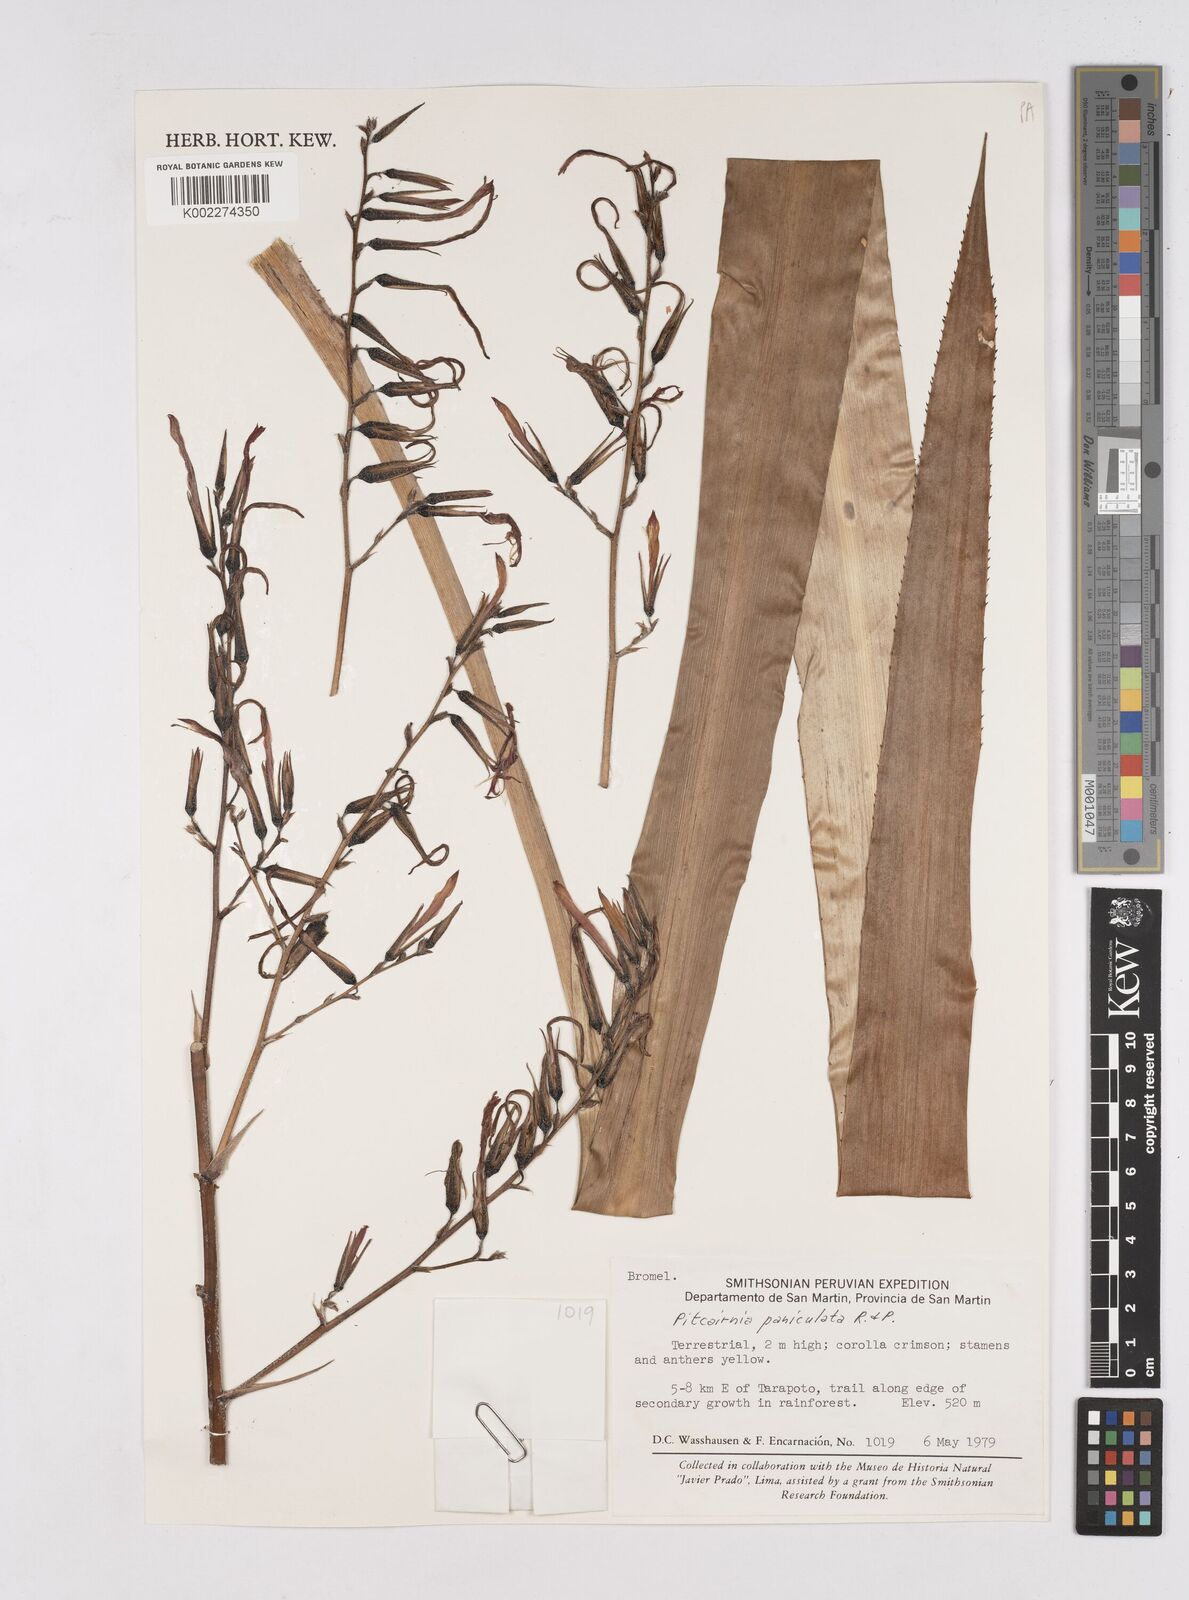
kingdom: Plantae
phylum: Tracheophyta
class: Liliopsida
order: Poales
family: Bromeliaceae
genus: Pitcairnia
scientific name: Pitcairnia paniculata
